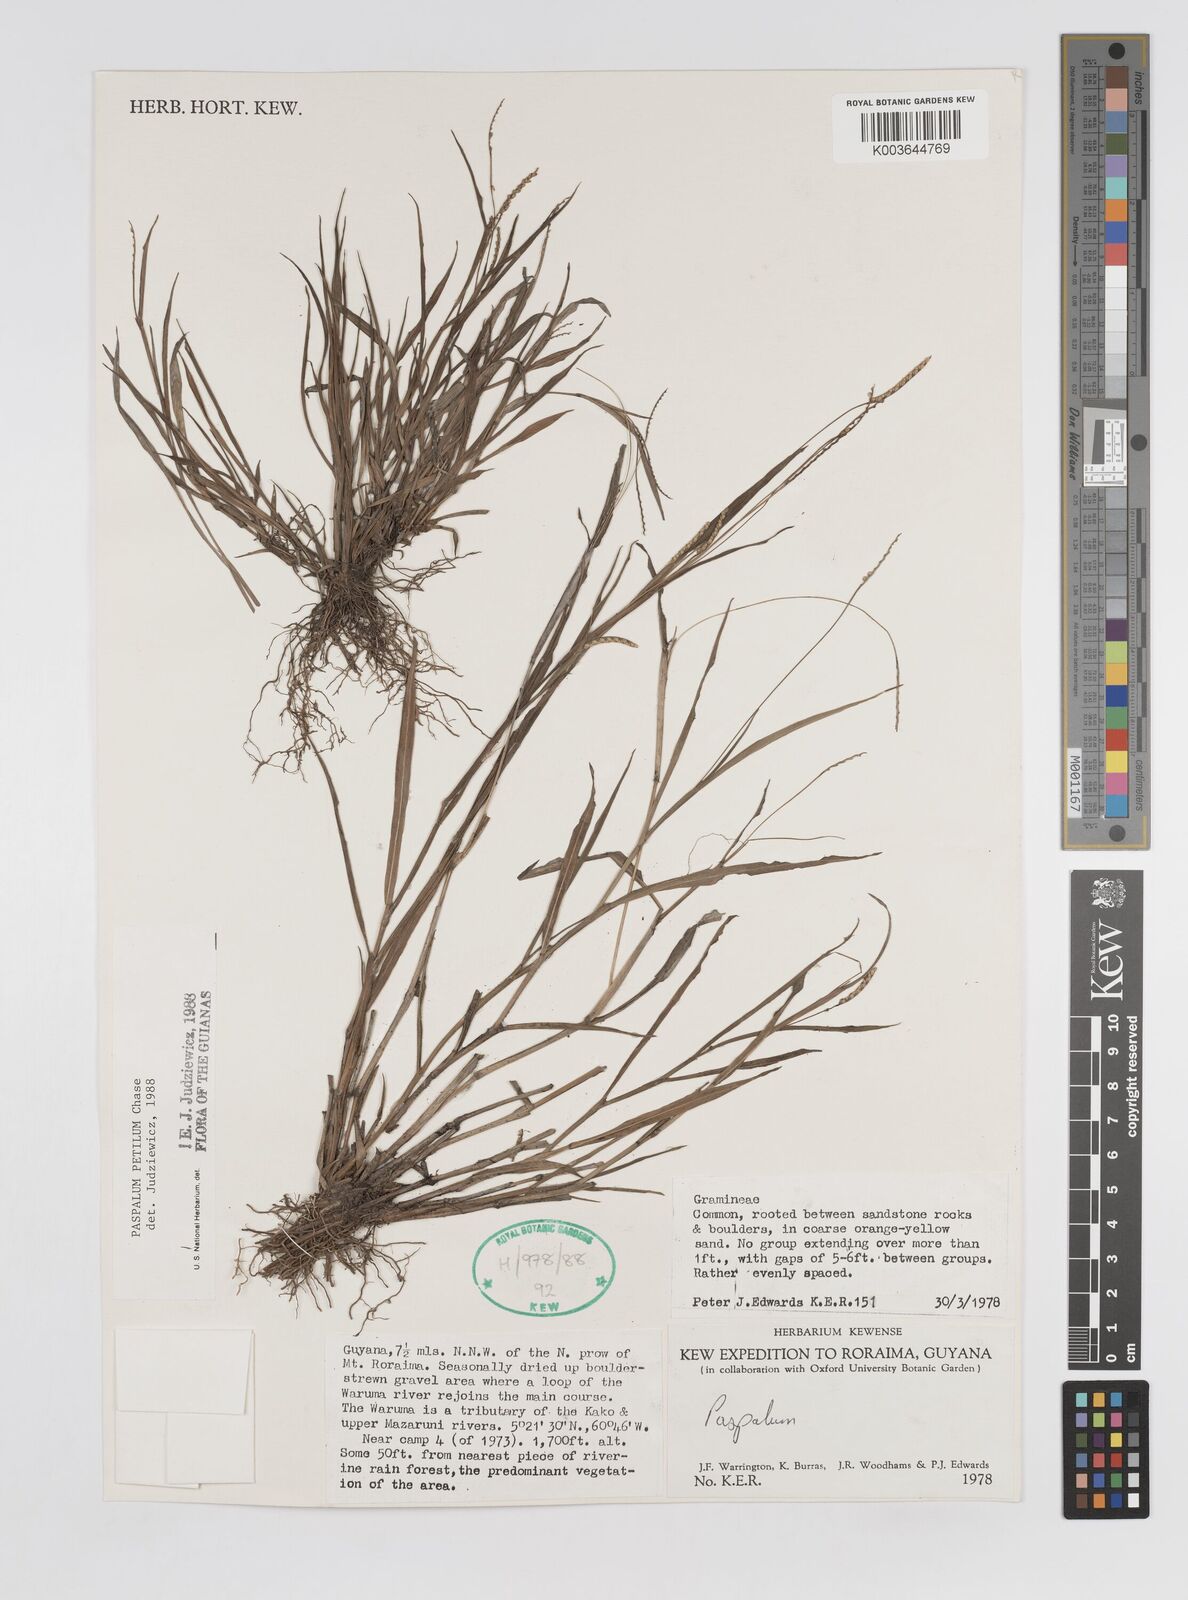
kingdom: Plantae
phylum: Tracheophyta
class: Liliopsida
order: Poales
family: Poaceae
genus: Paspalum
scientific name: Paspalum petilum
